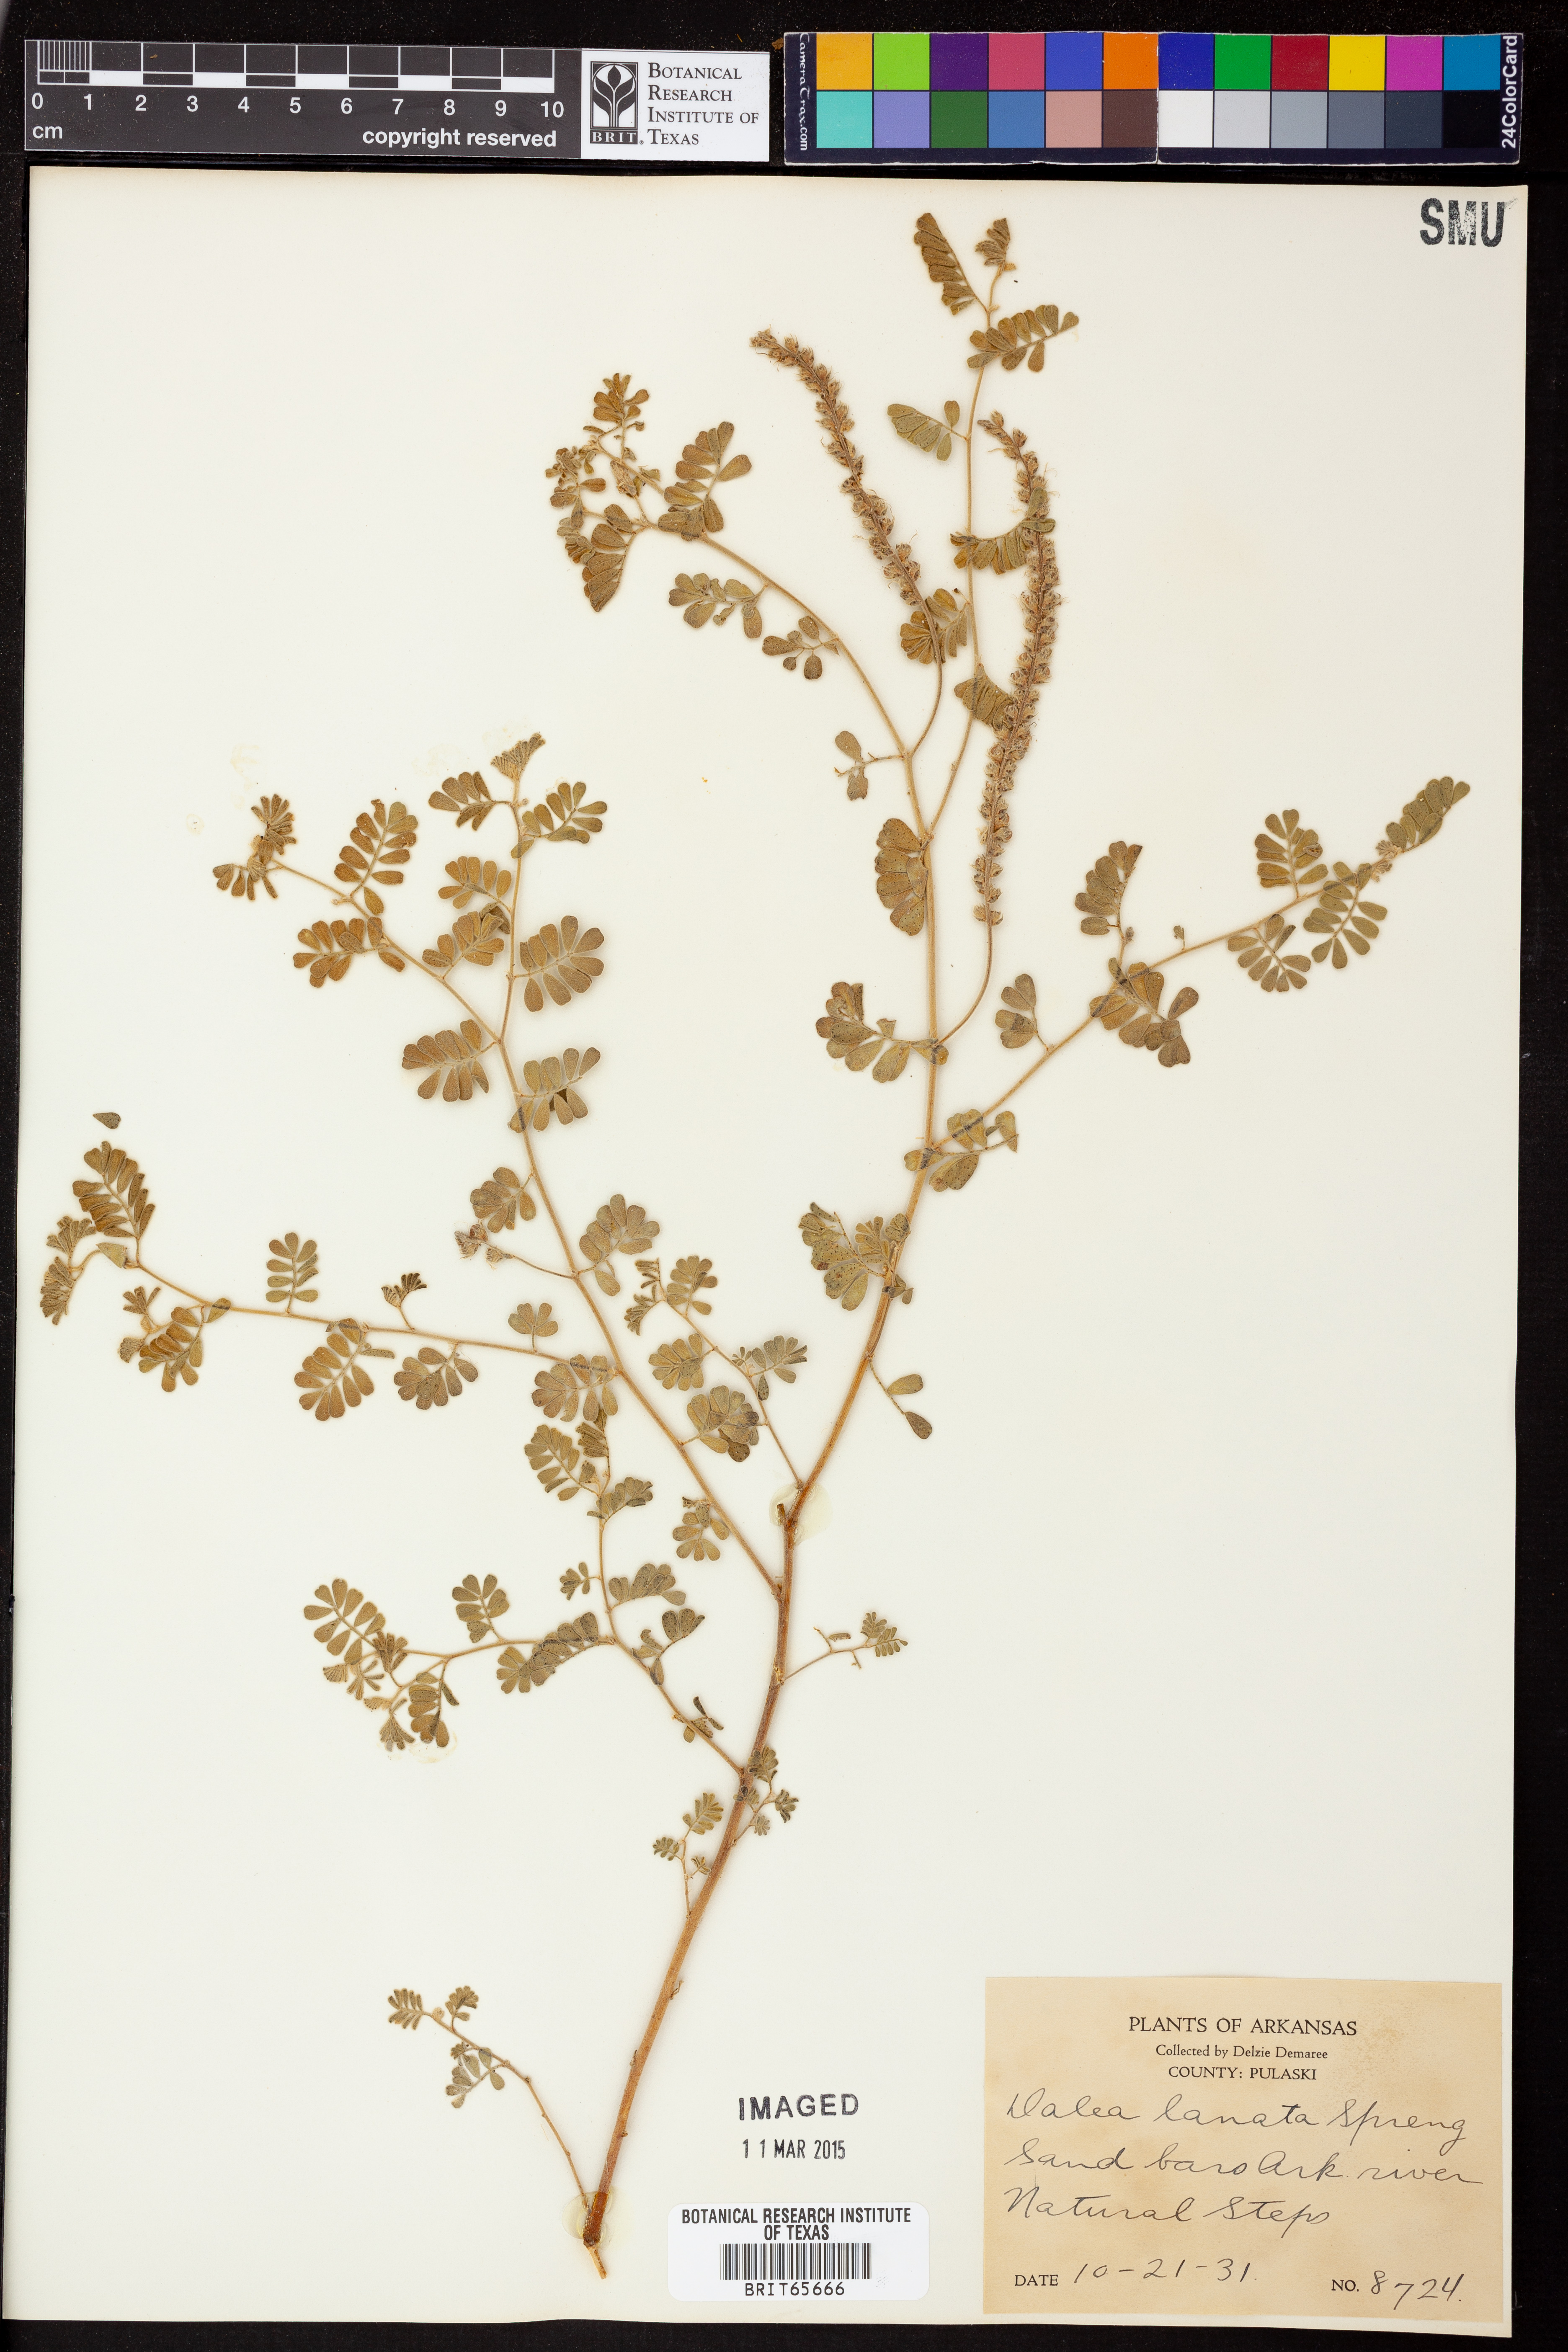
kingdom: Plantae
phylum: Tracheophyta
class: Magnoliopsida
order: Fabales
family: Fabaceae
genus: Dalea
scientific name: Dalea lanata
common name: Woolly dalea
